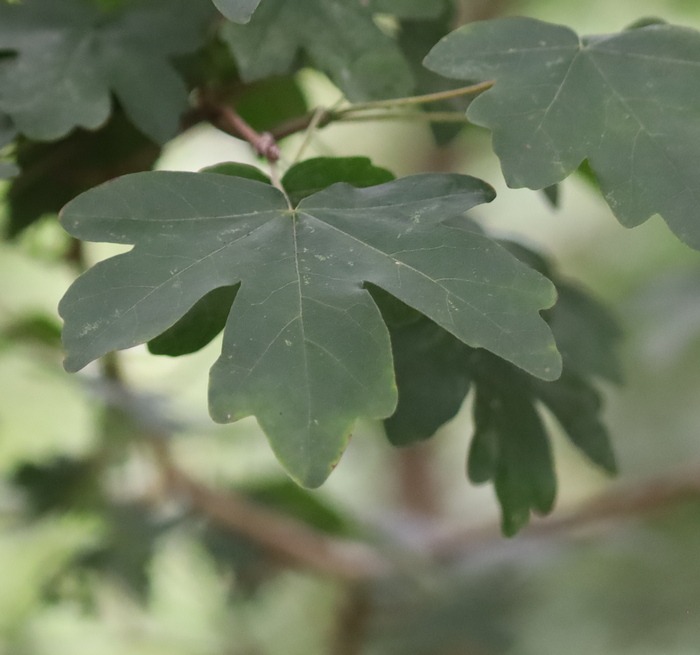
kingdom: Plantae
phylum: Tracheophyta
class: Magnoliopsida
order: Sapindales
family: Sapindaceae
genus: Acer
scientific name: Acer campestre
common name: Navr
